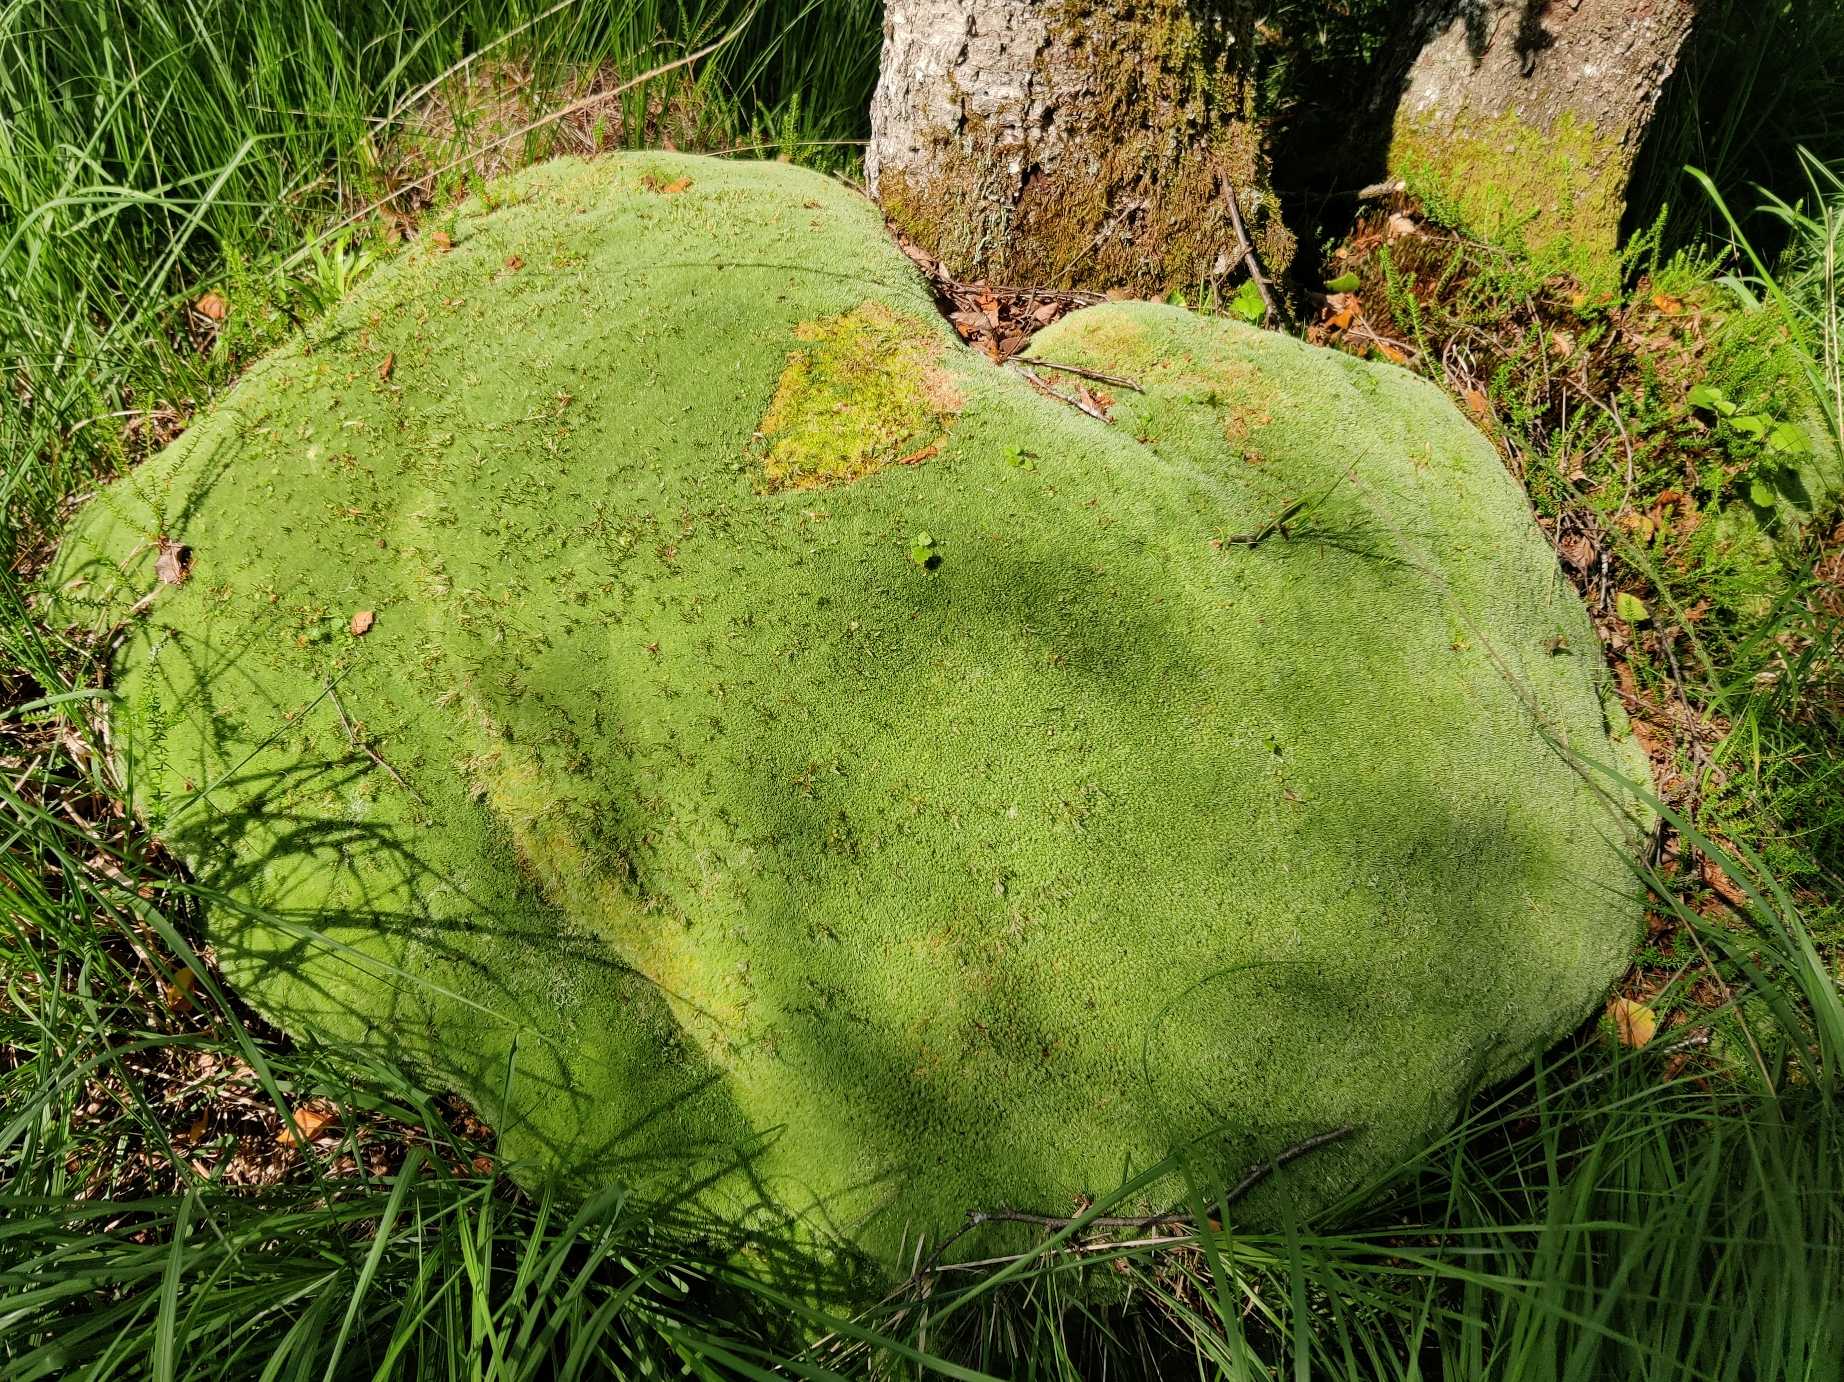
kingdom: Plantae
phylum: Bryophyta
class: Bryopsida
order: Dicranales
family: Leucobryaceae
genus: Leucobryum
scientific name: Leucobryum glaucum
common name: Almindelig hvidmos
